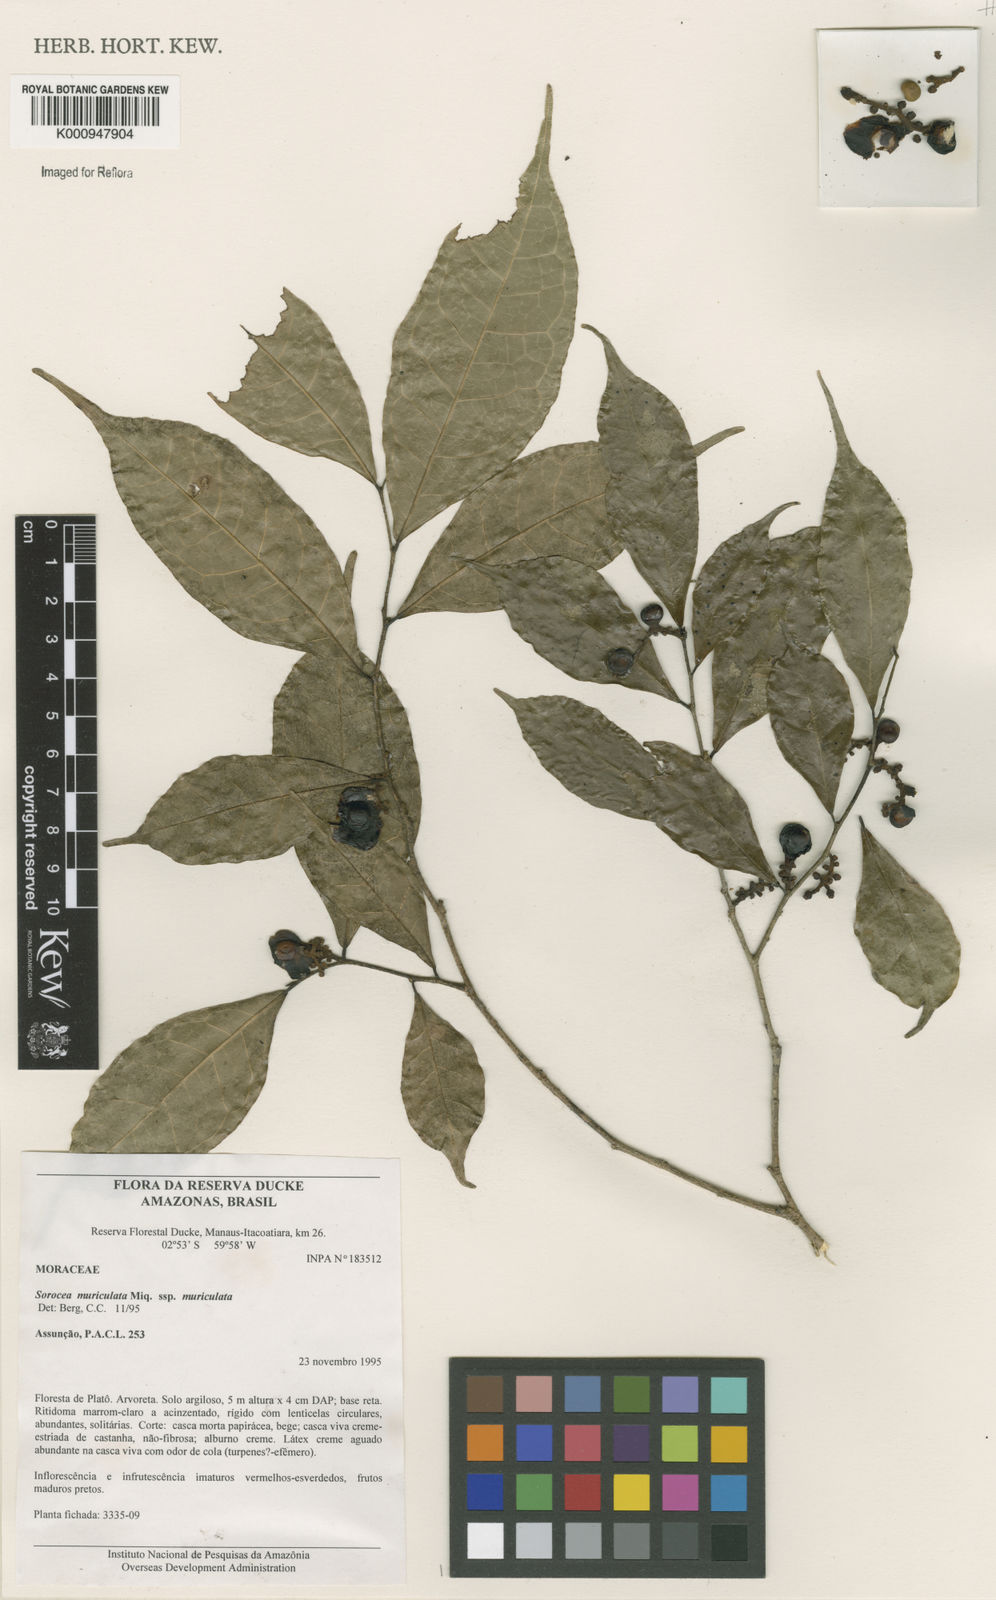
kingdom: Plantae
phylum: Tracheophyta
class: Magnoliopsida
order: Rosales
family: Moraceae
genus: Sorocea
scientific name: Sorocea muriculata
